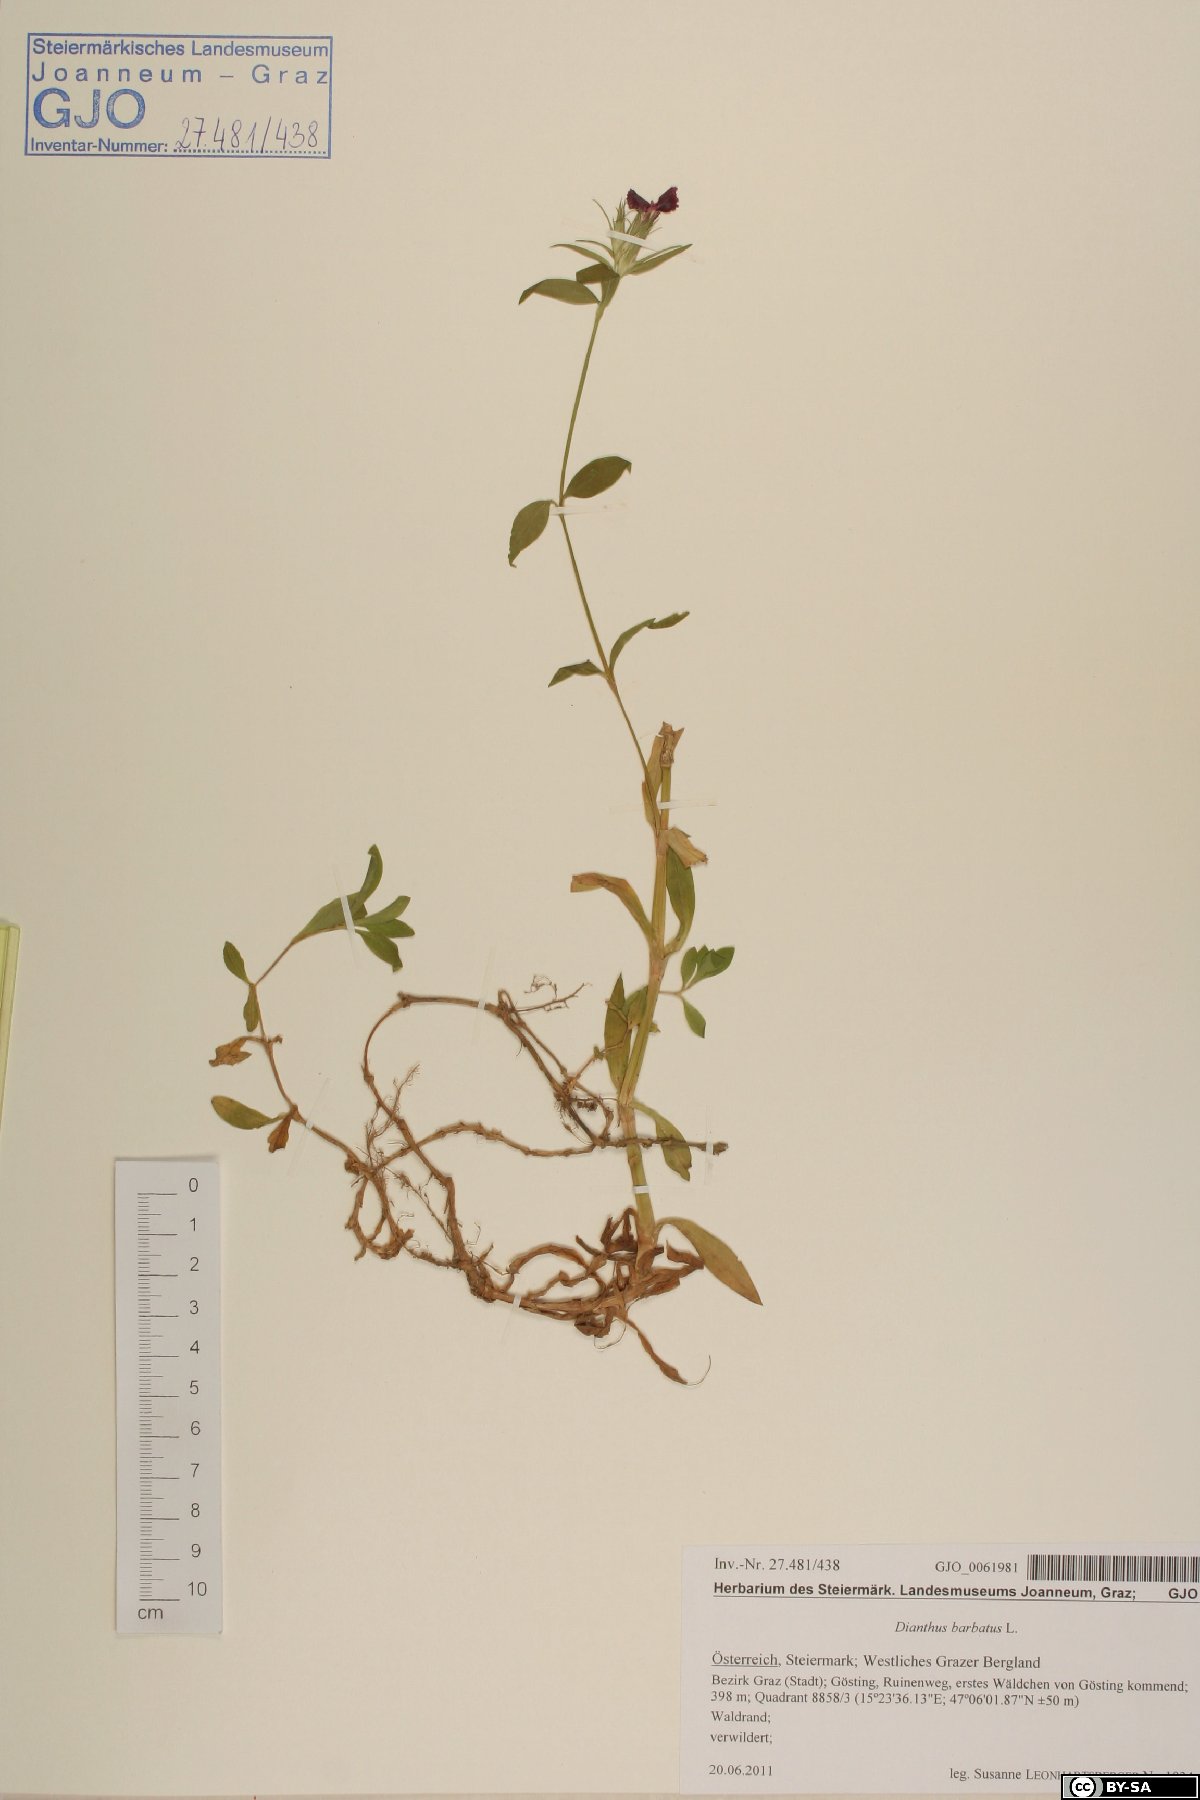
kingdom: Plantae
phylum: Tracheophyta
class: Magnoliopsida
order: Caryophyllales
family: Caryophyllaceae
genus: Dianthus
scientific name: Dianthus barbatus
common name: Sweet-william
